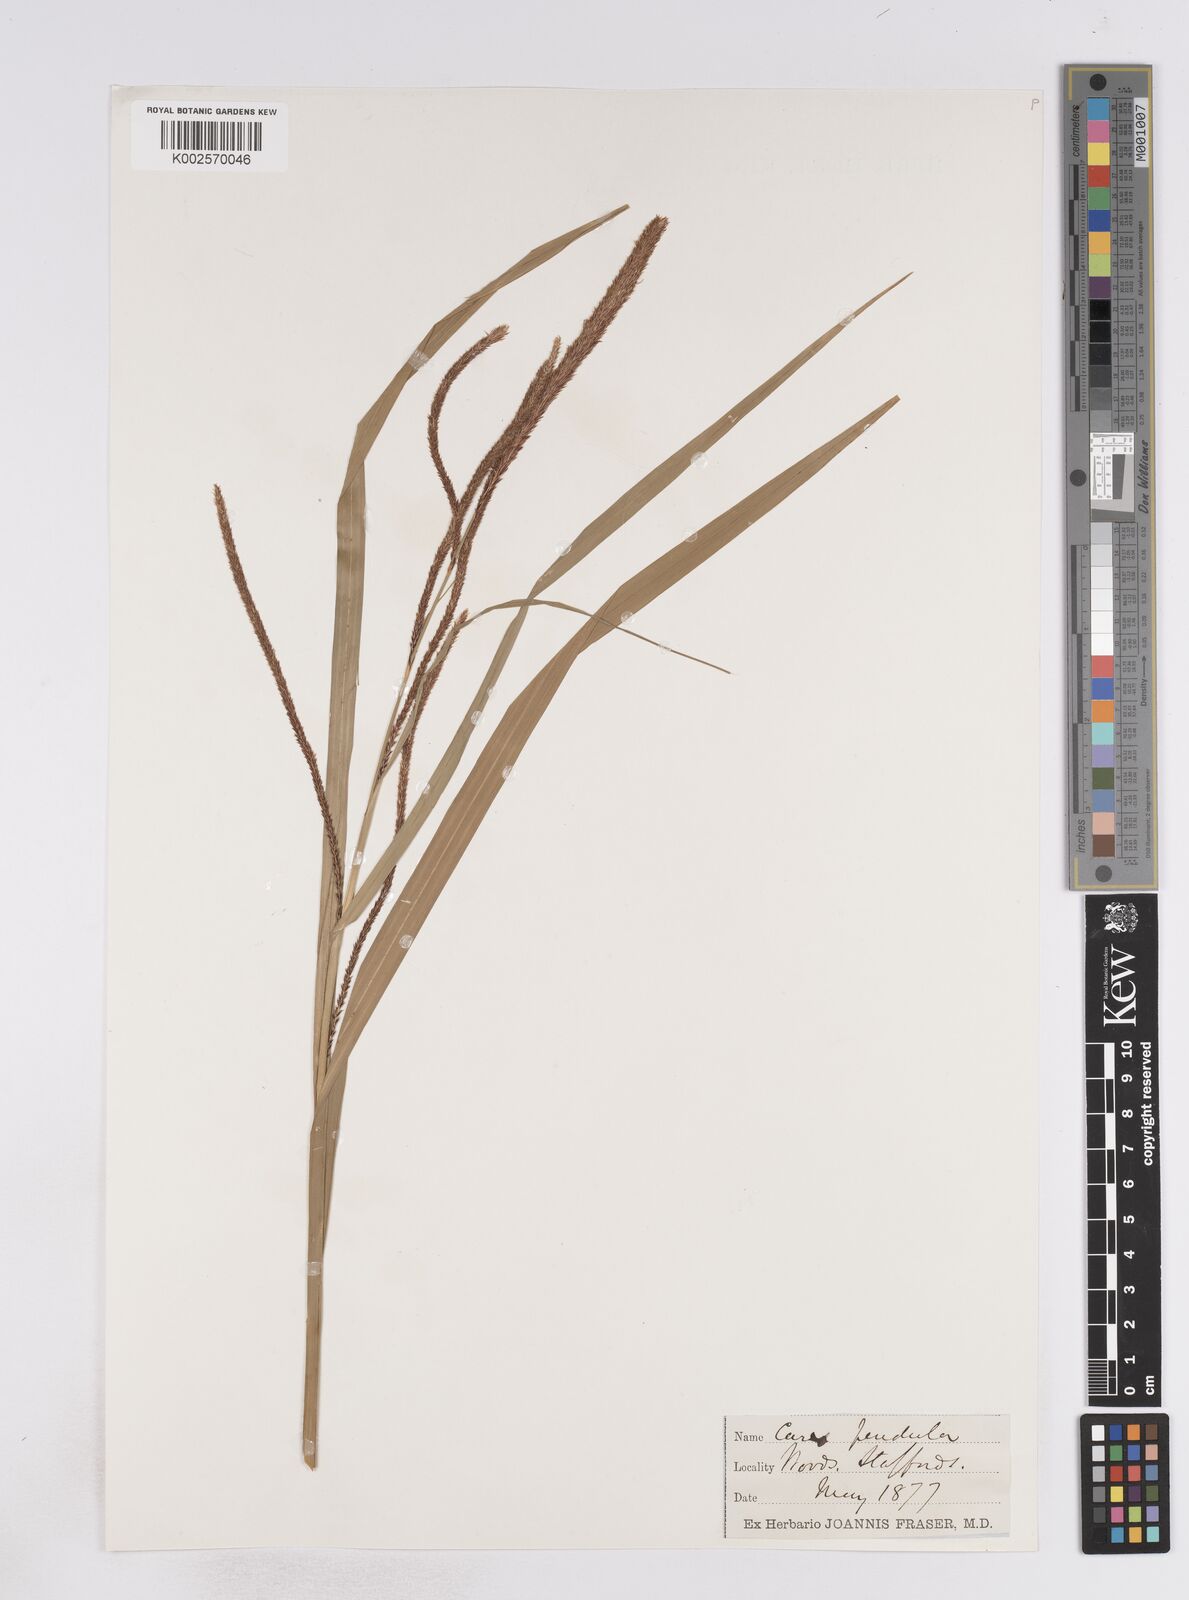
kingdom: Plantae
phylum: Tracheophyta
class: Liliopsida
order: Poales
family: Cyperaceae
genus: Carex
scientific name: Carex pendula
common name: Pendulous sedge
